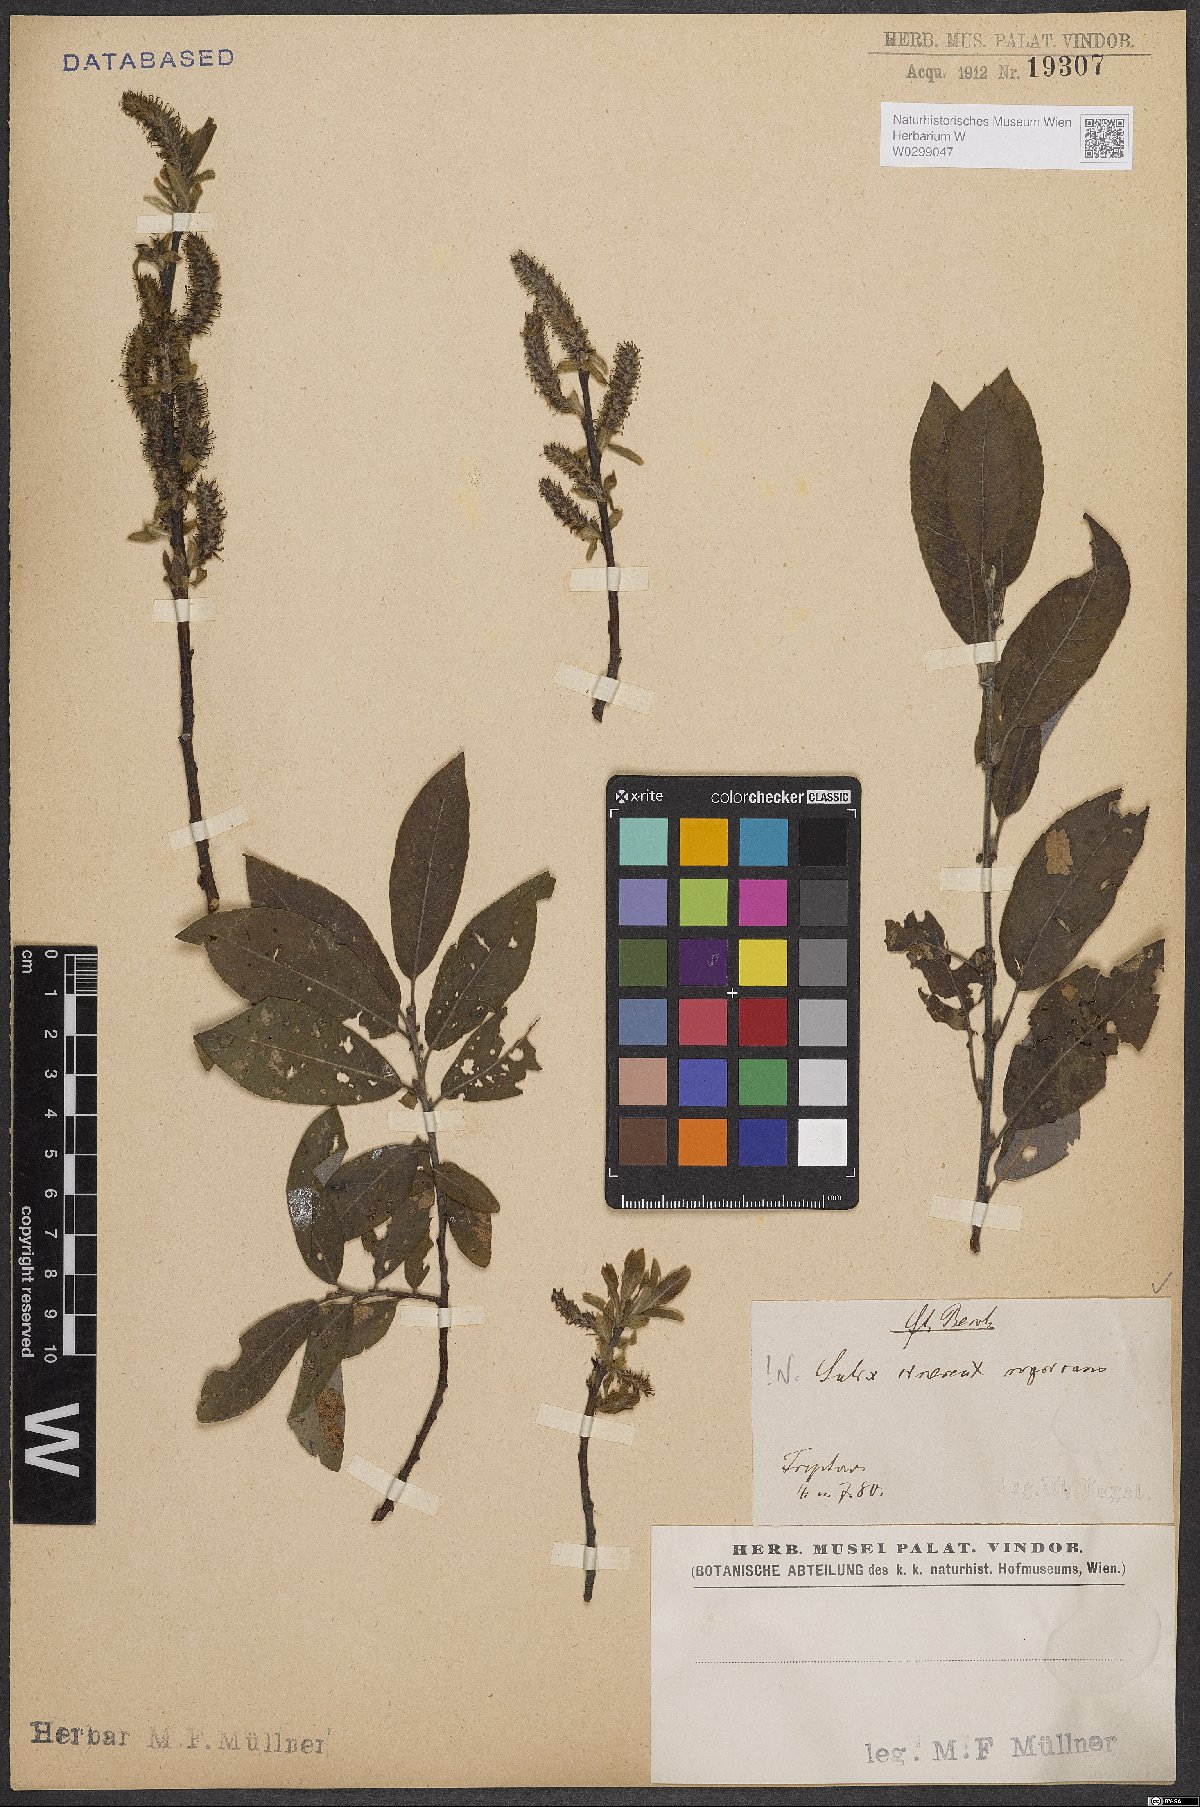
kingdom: Plantae
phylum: Tracheophyta
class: Magnoliopsida
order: Malpighiales
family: Salicaceae
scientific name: Salicaceae
